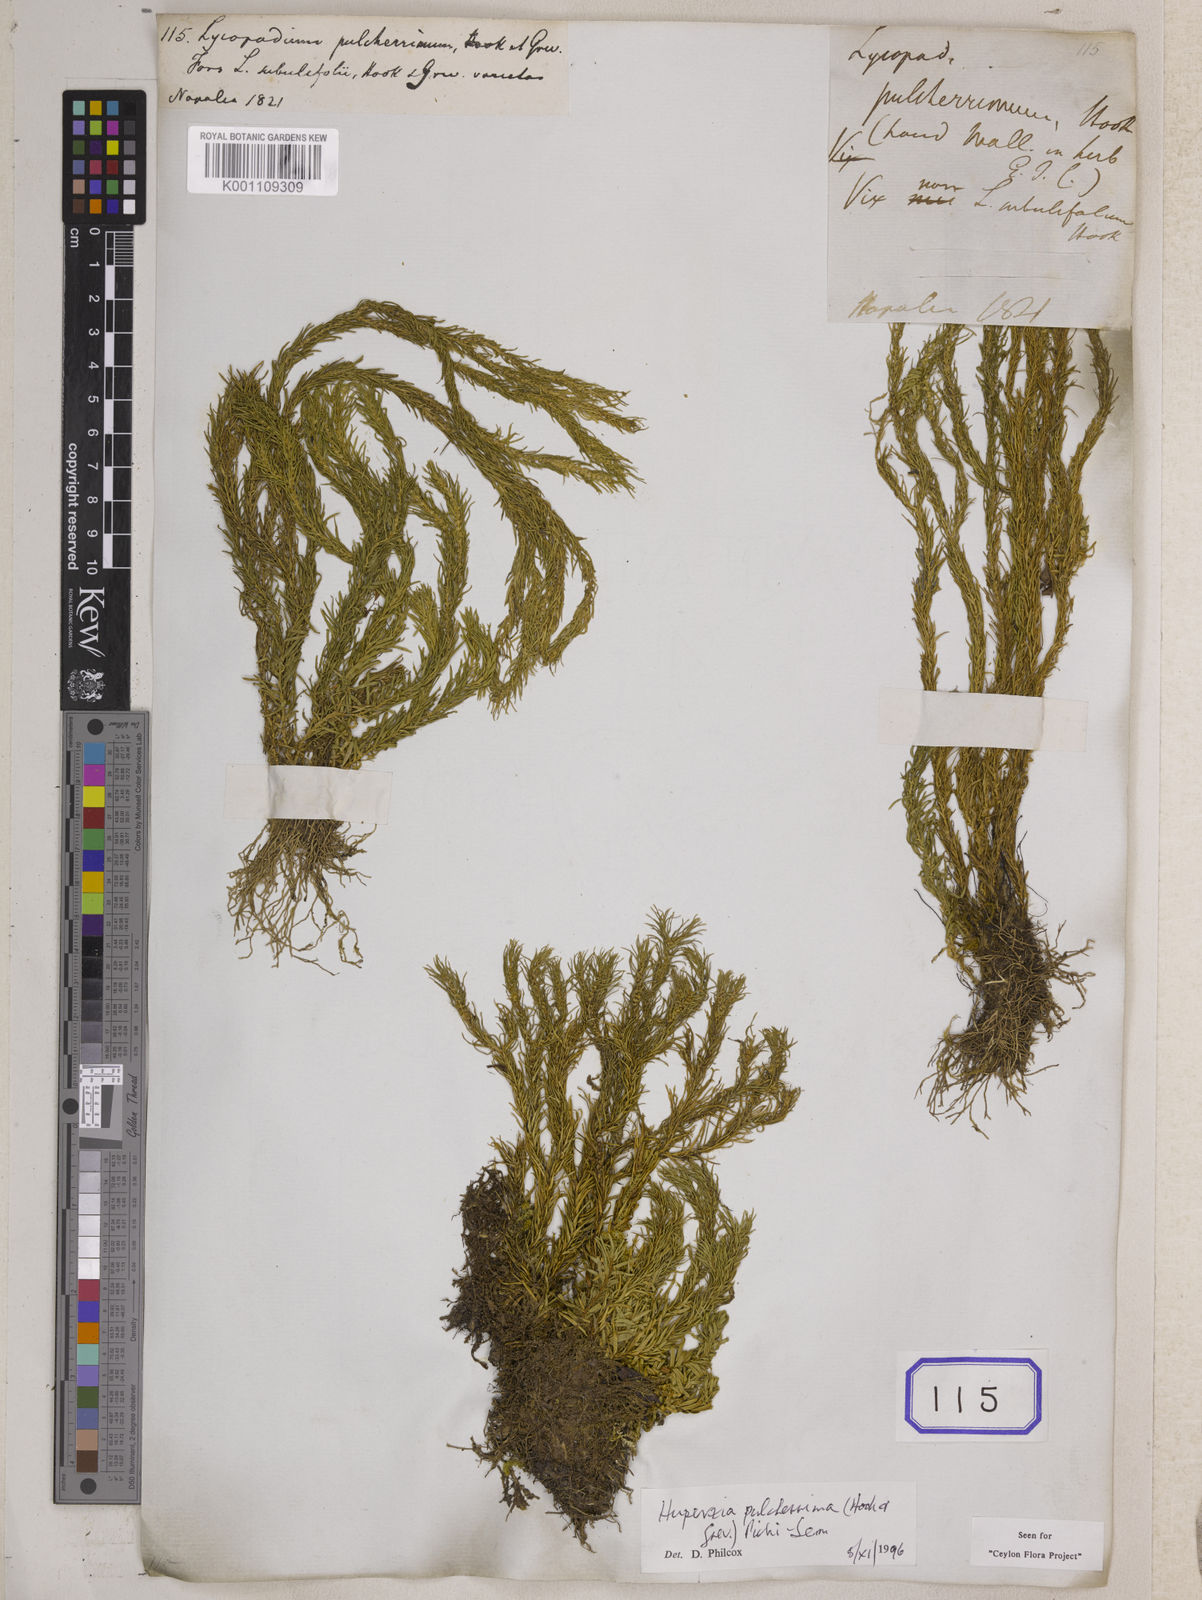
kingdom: Plantae
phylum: Tracheophyta
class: Lycopodiopsida
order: Lycopodiales
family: Lycopodiaceae
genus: Phlegmariurus
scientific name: Phlegmariurus pulcherrimus
